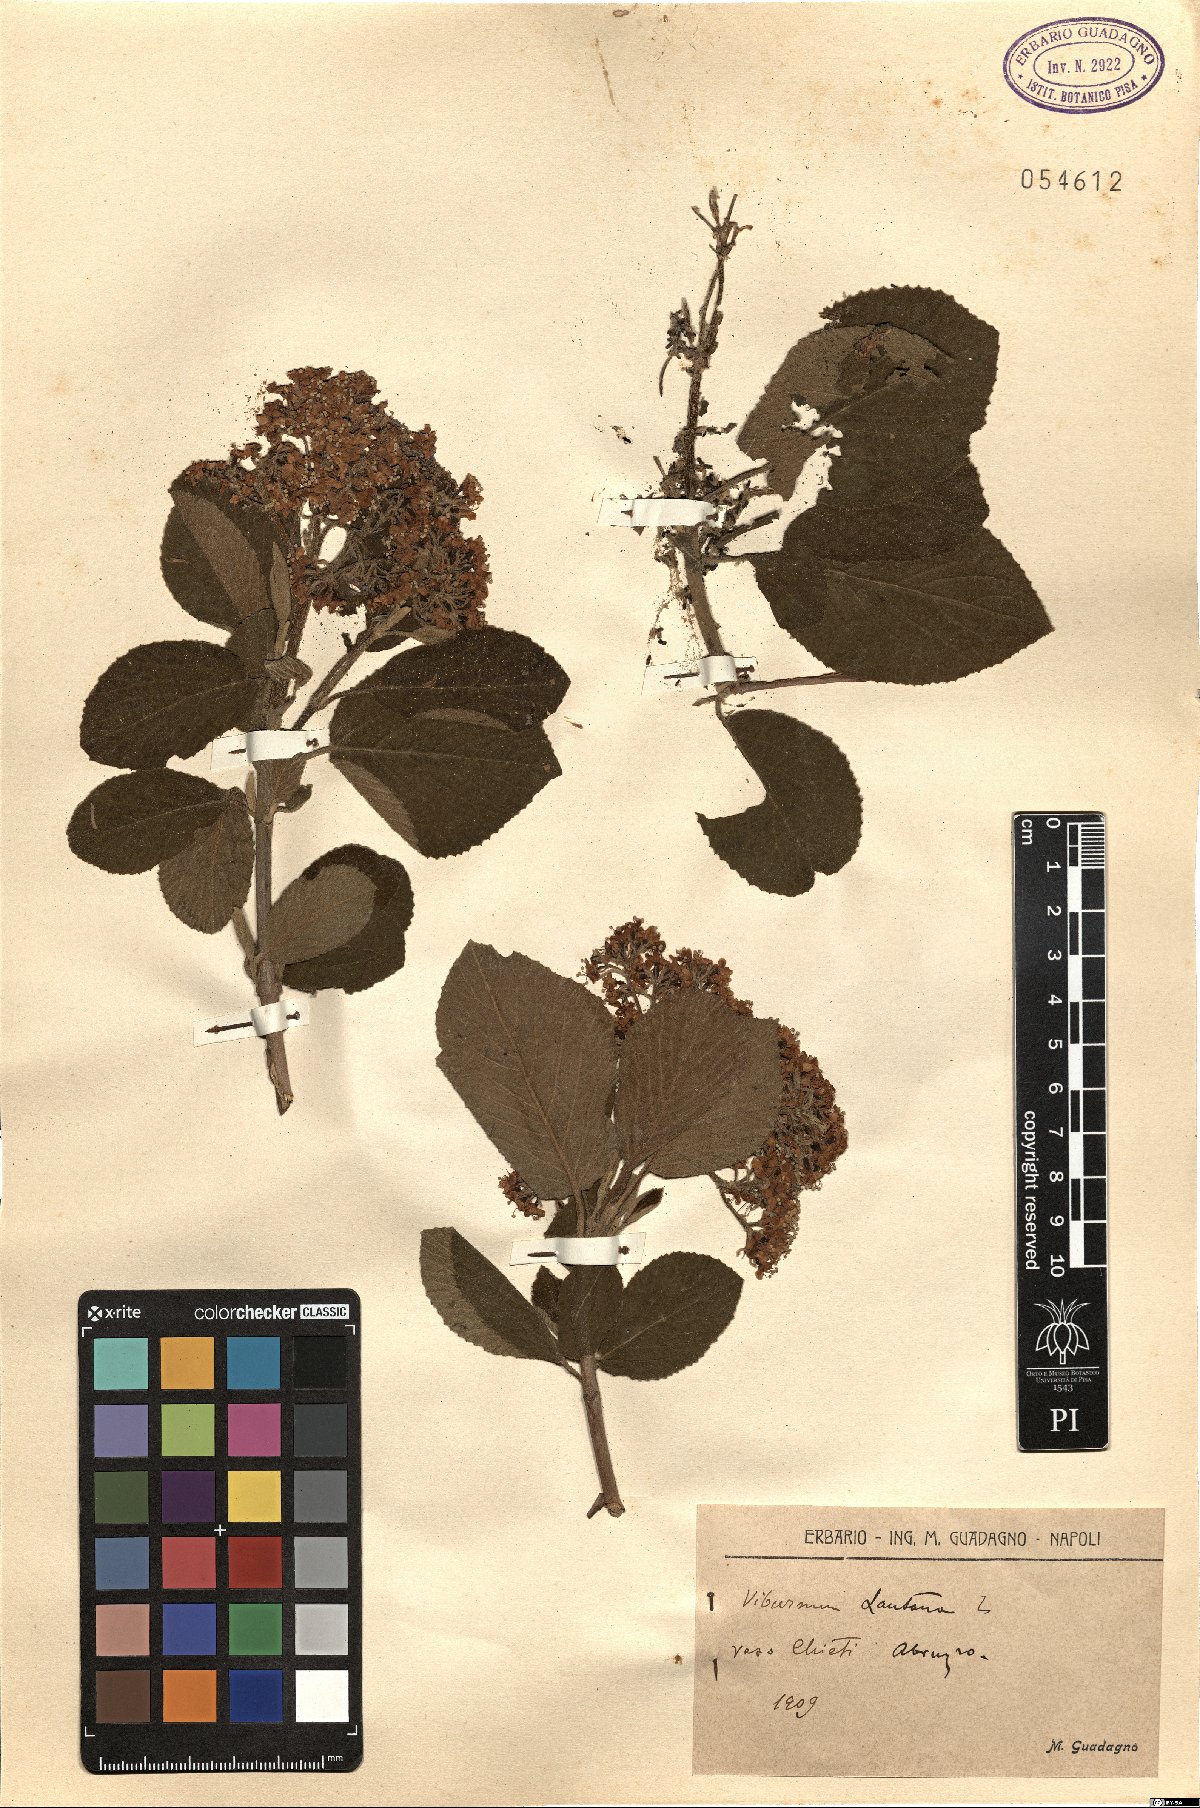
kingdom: Plantae
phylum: Tracheophyta
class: Magnoliopsida
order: Dipsacales
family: Viburnaceae
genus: Viburnum
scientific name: Viburnum lantana
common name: Wayfaring tree
